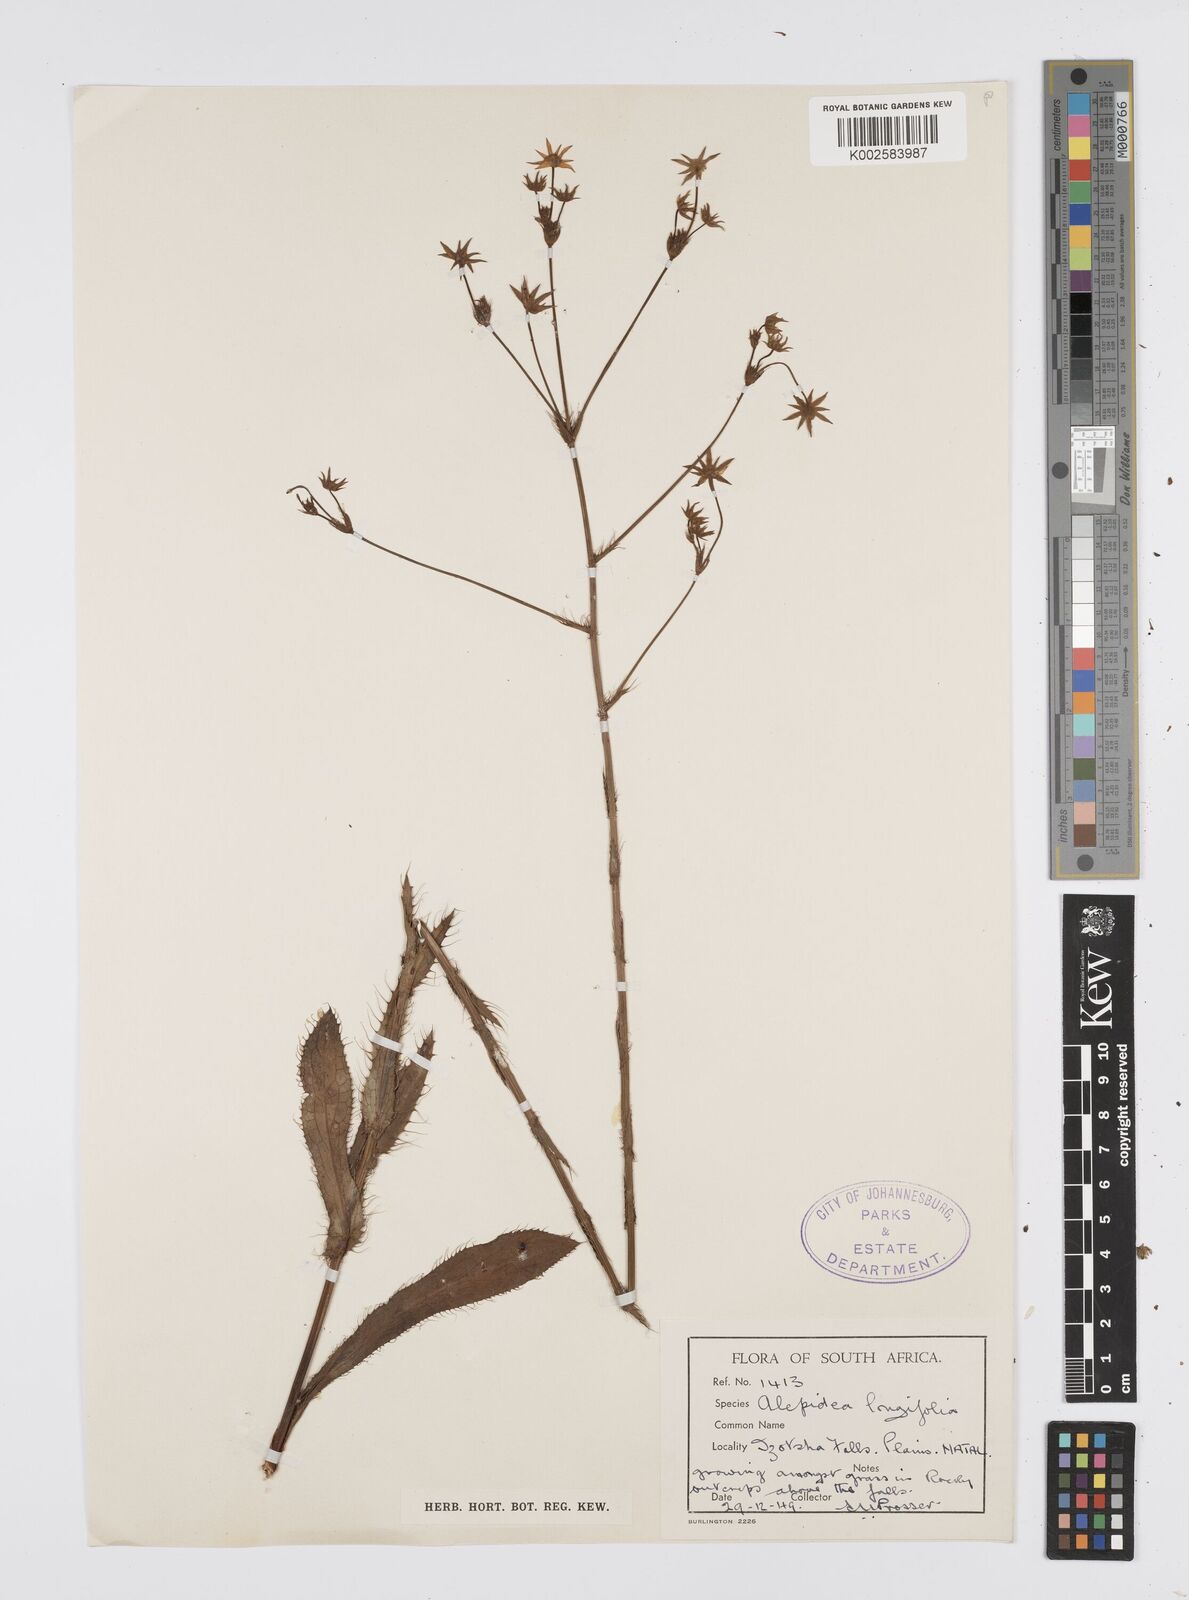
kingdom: Plantae
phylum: Tracheophyta
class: Magnoliopsida
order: Apiales
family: Apiaceae
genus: Alepidea
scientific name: Alepidea
